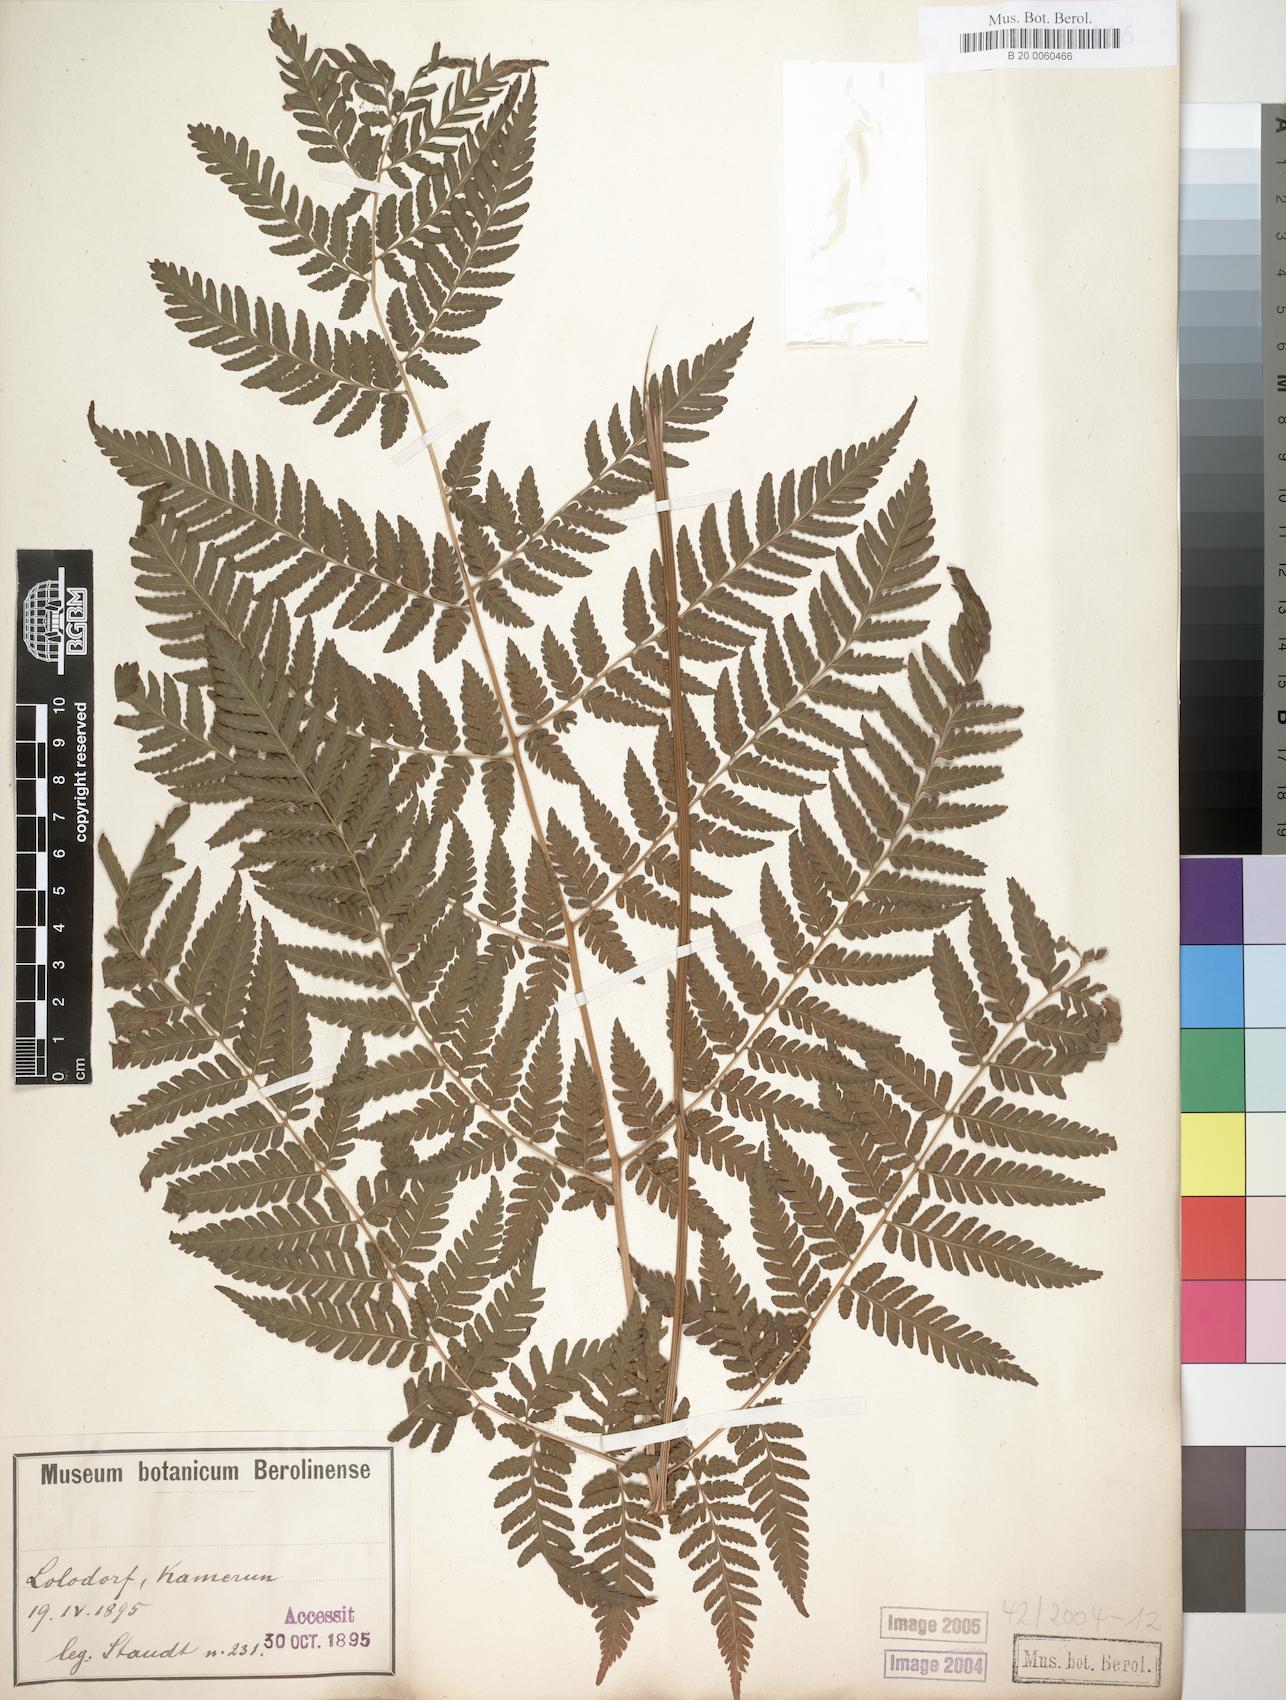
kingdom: Plantae
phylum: Tracheophyta
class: Polypodiopsida
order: Polypodiales
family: Dryopteridaceae
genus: Parapolystichum
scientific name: Parapolystichum nigritianum
